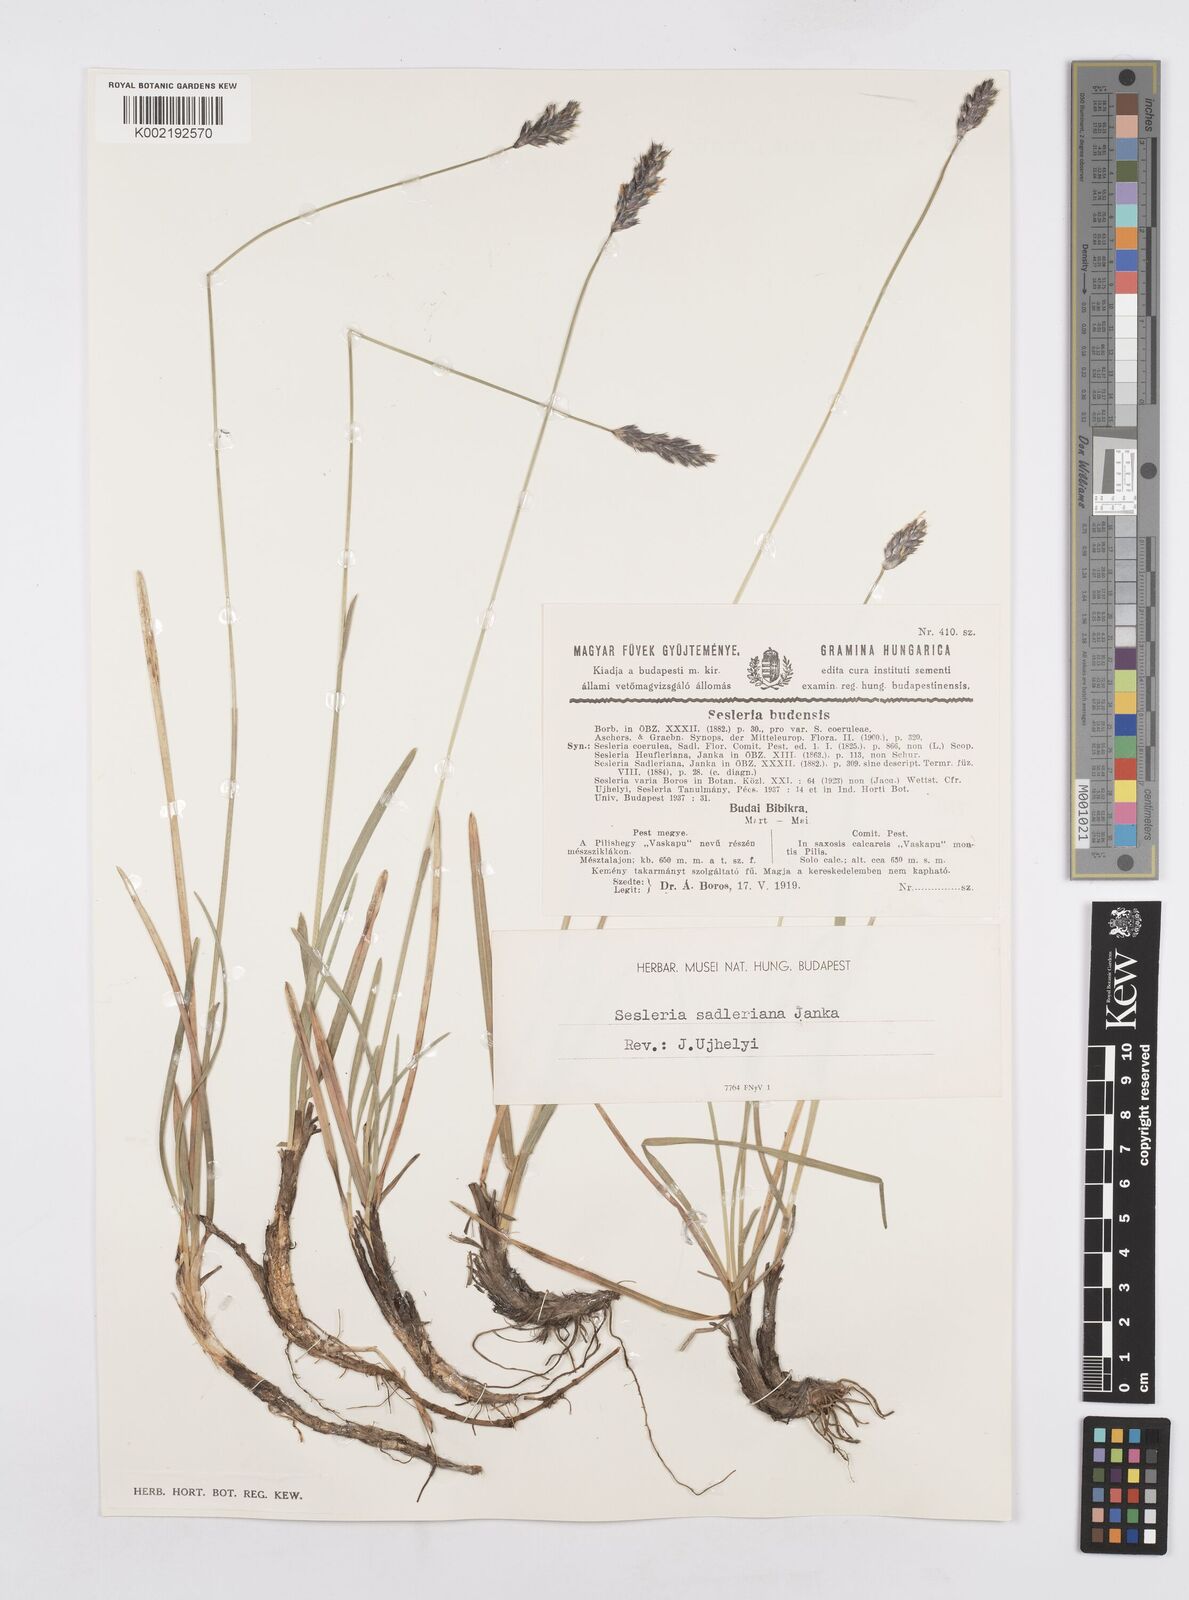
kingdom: Plantae
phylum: Tracheophyta
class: Liliopsida
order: Poales
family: Poaceae
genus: Sesleria
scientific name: Sesleria sadleriana
